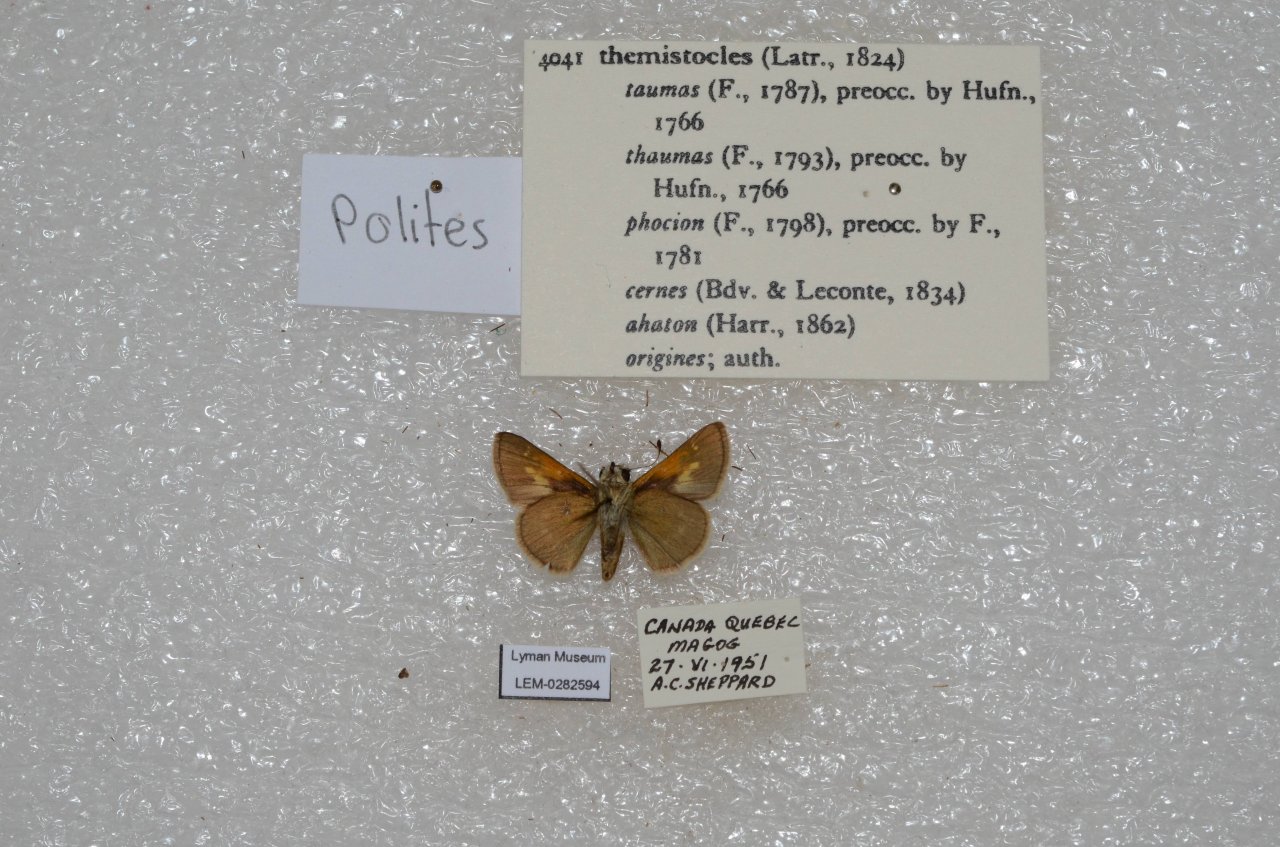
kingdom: Animalia
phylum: Arthropoda
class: Insecta
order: Lepidoptera
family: Hesperiidae
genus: Polites
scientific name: Polites themistocles
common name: Tawny-edged Skipper
